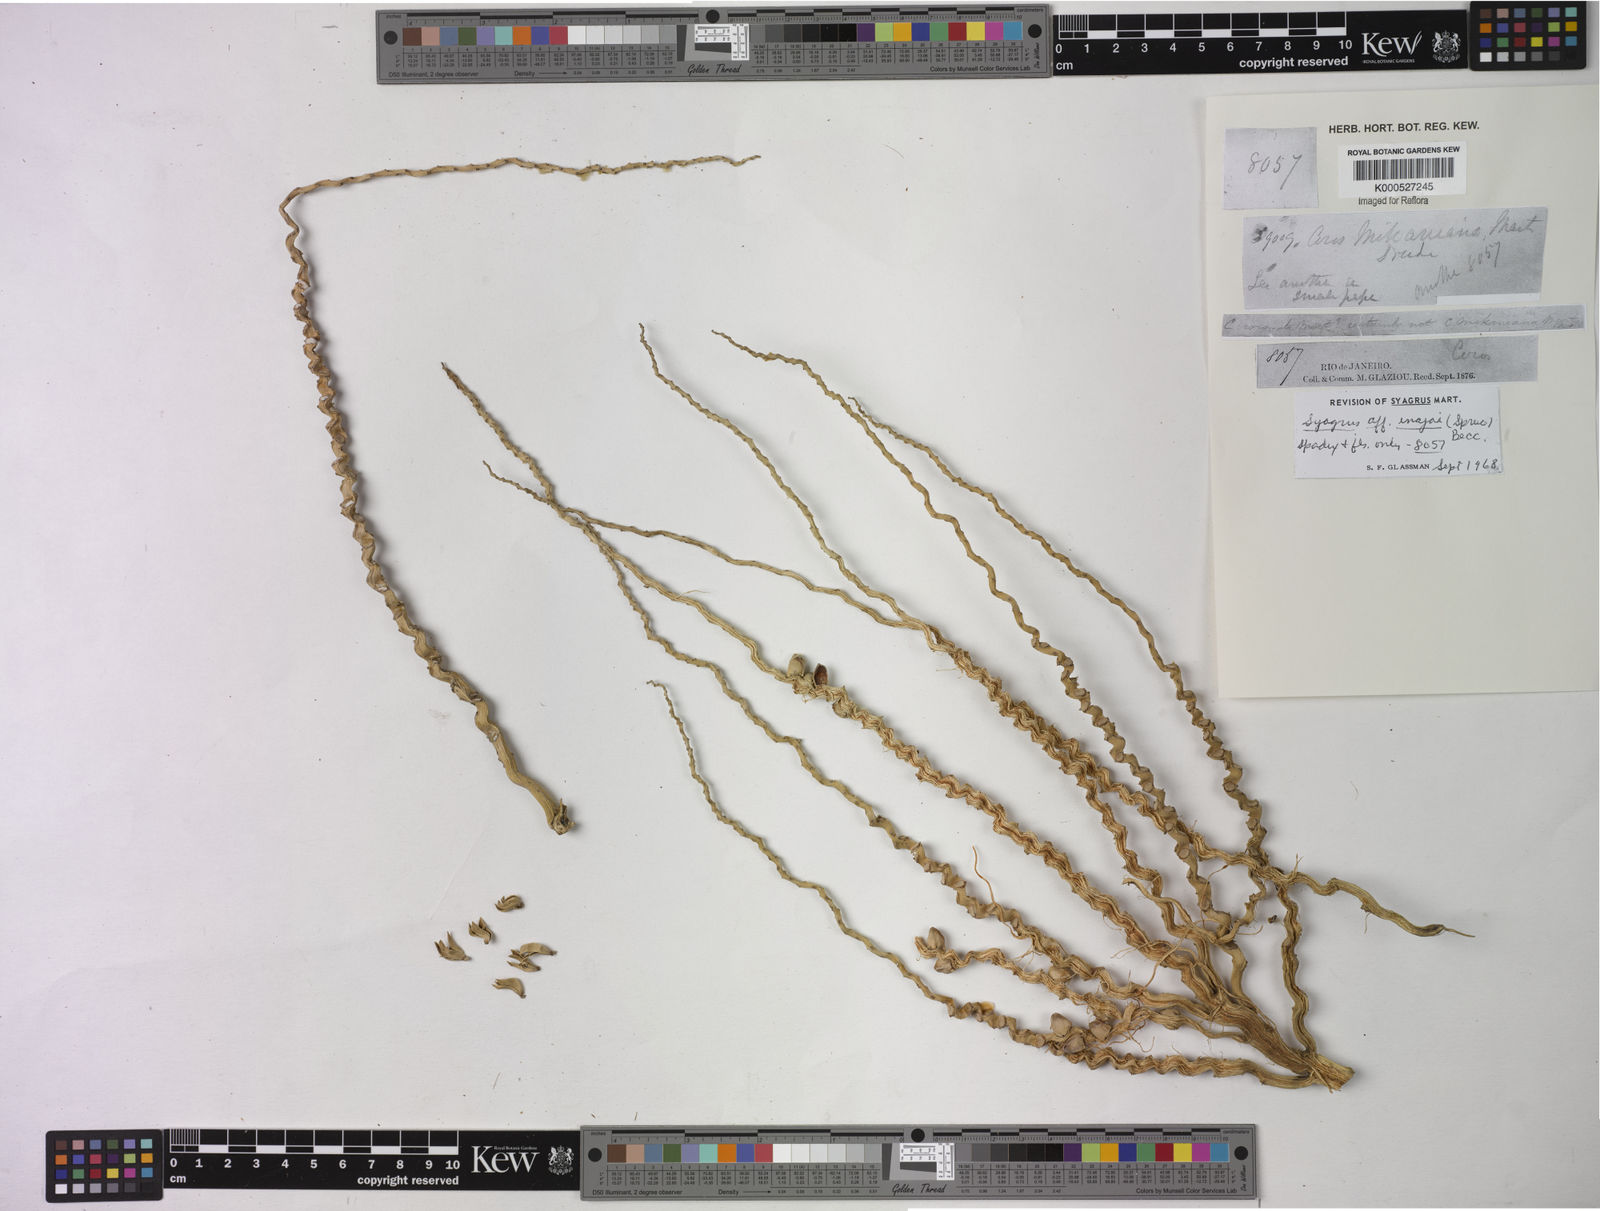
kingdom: Plantae
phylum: Tracheophyta
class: Liliopsida
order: Arecales
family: Arecaceae
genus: Syagrus
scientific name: Syagrus pseudococos
